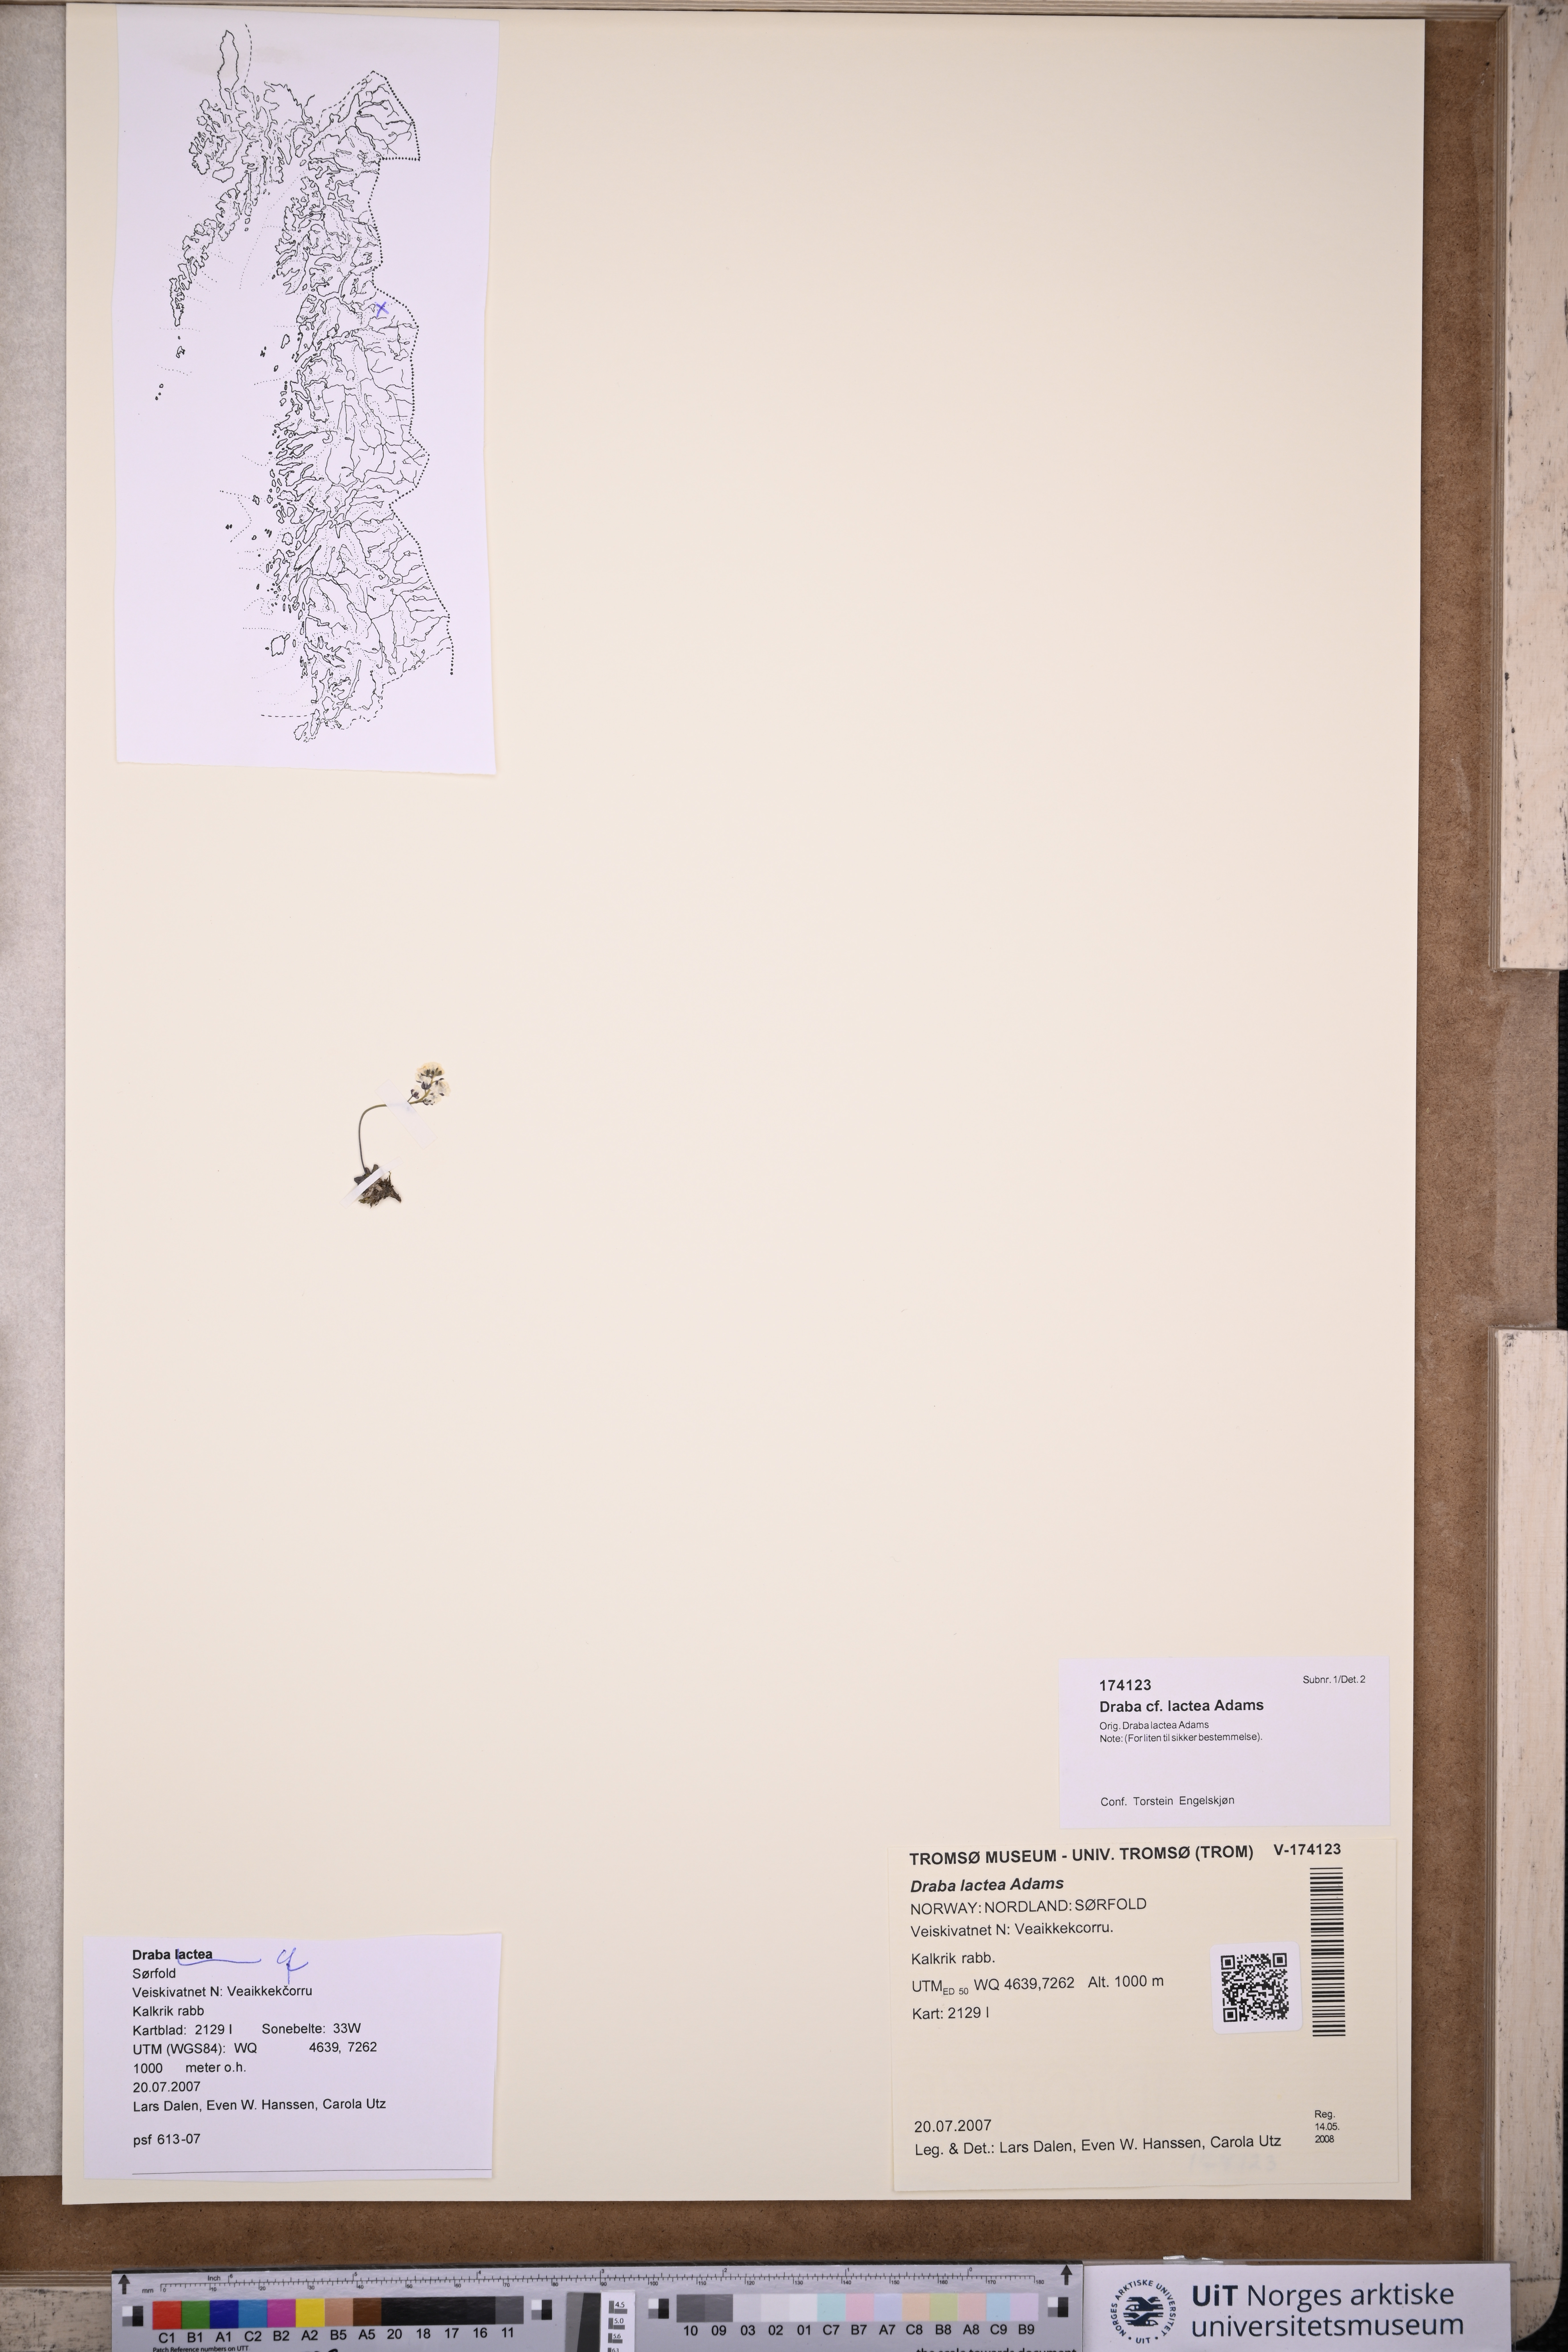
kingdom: Plantae
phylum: Tracheophyta
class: Magnoliopsida
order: Brassicales
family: Brassicaceae
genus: Draba
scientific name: Draba lactea
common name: Milky draba
